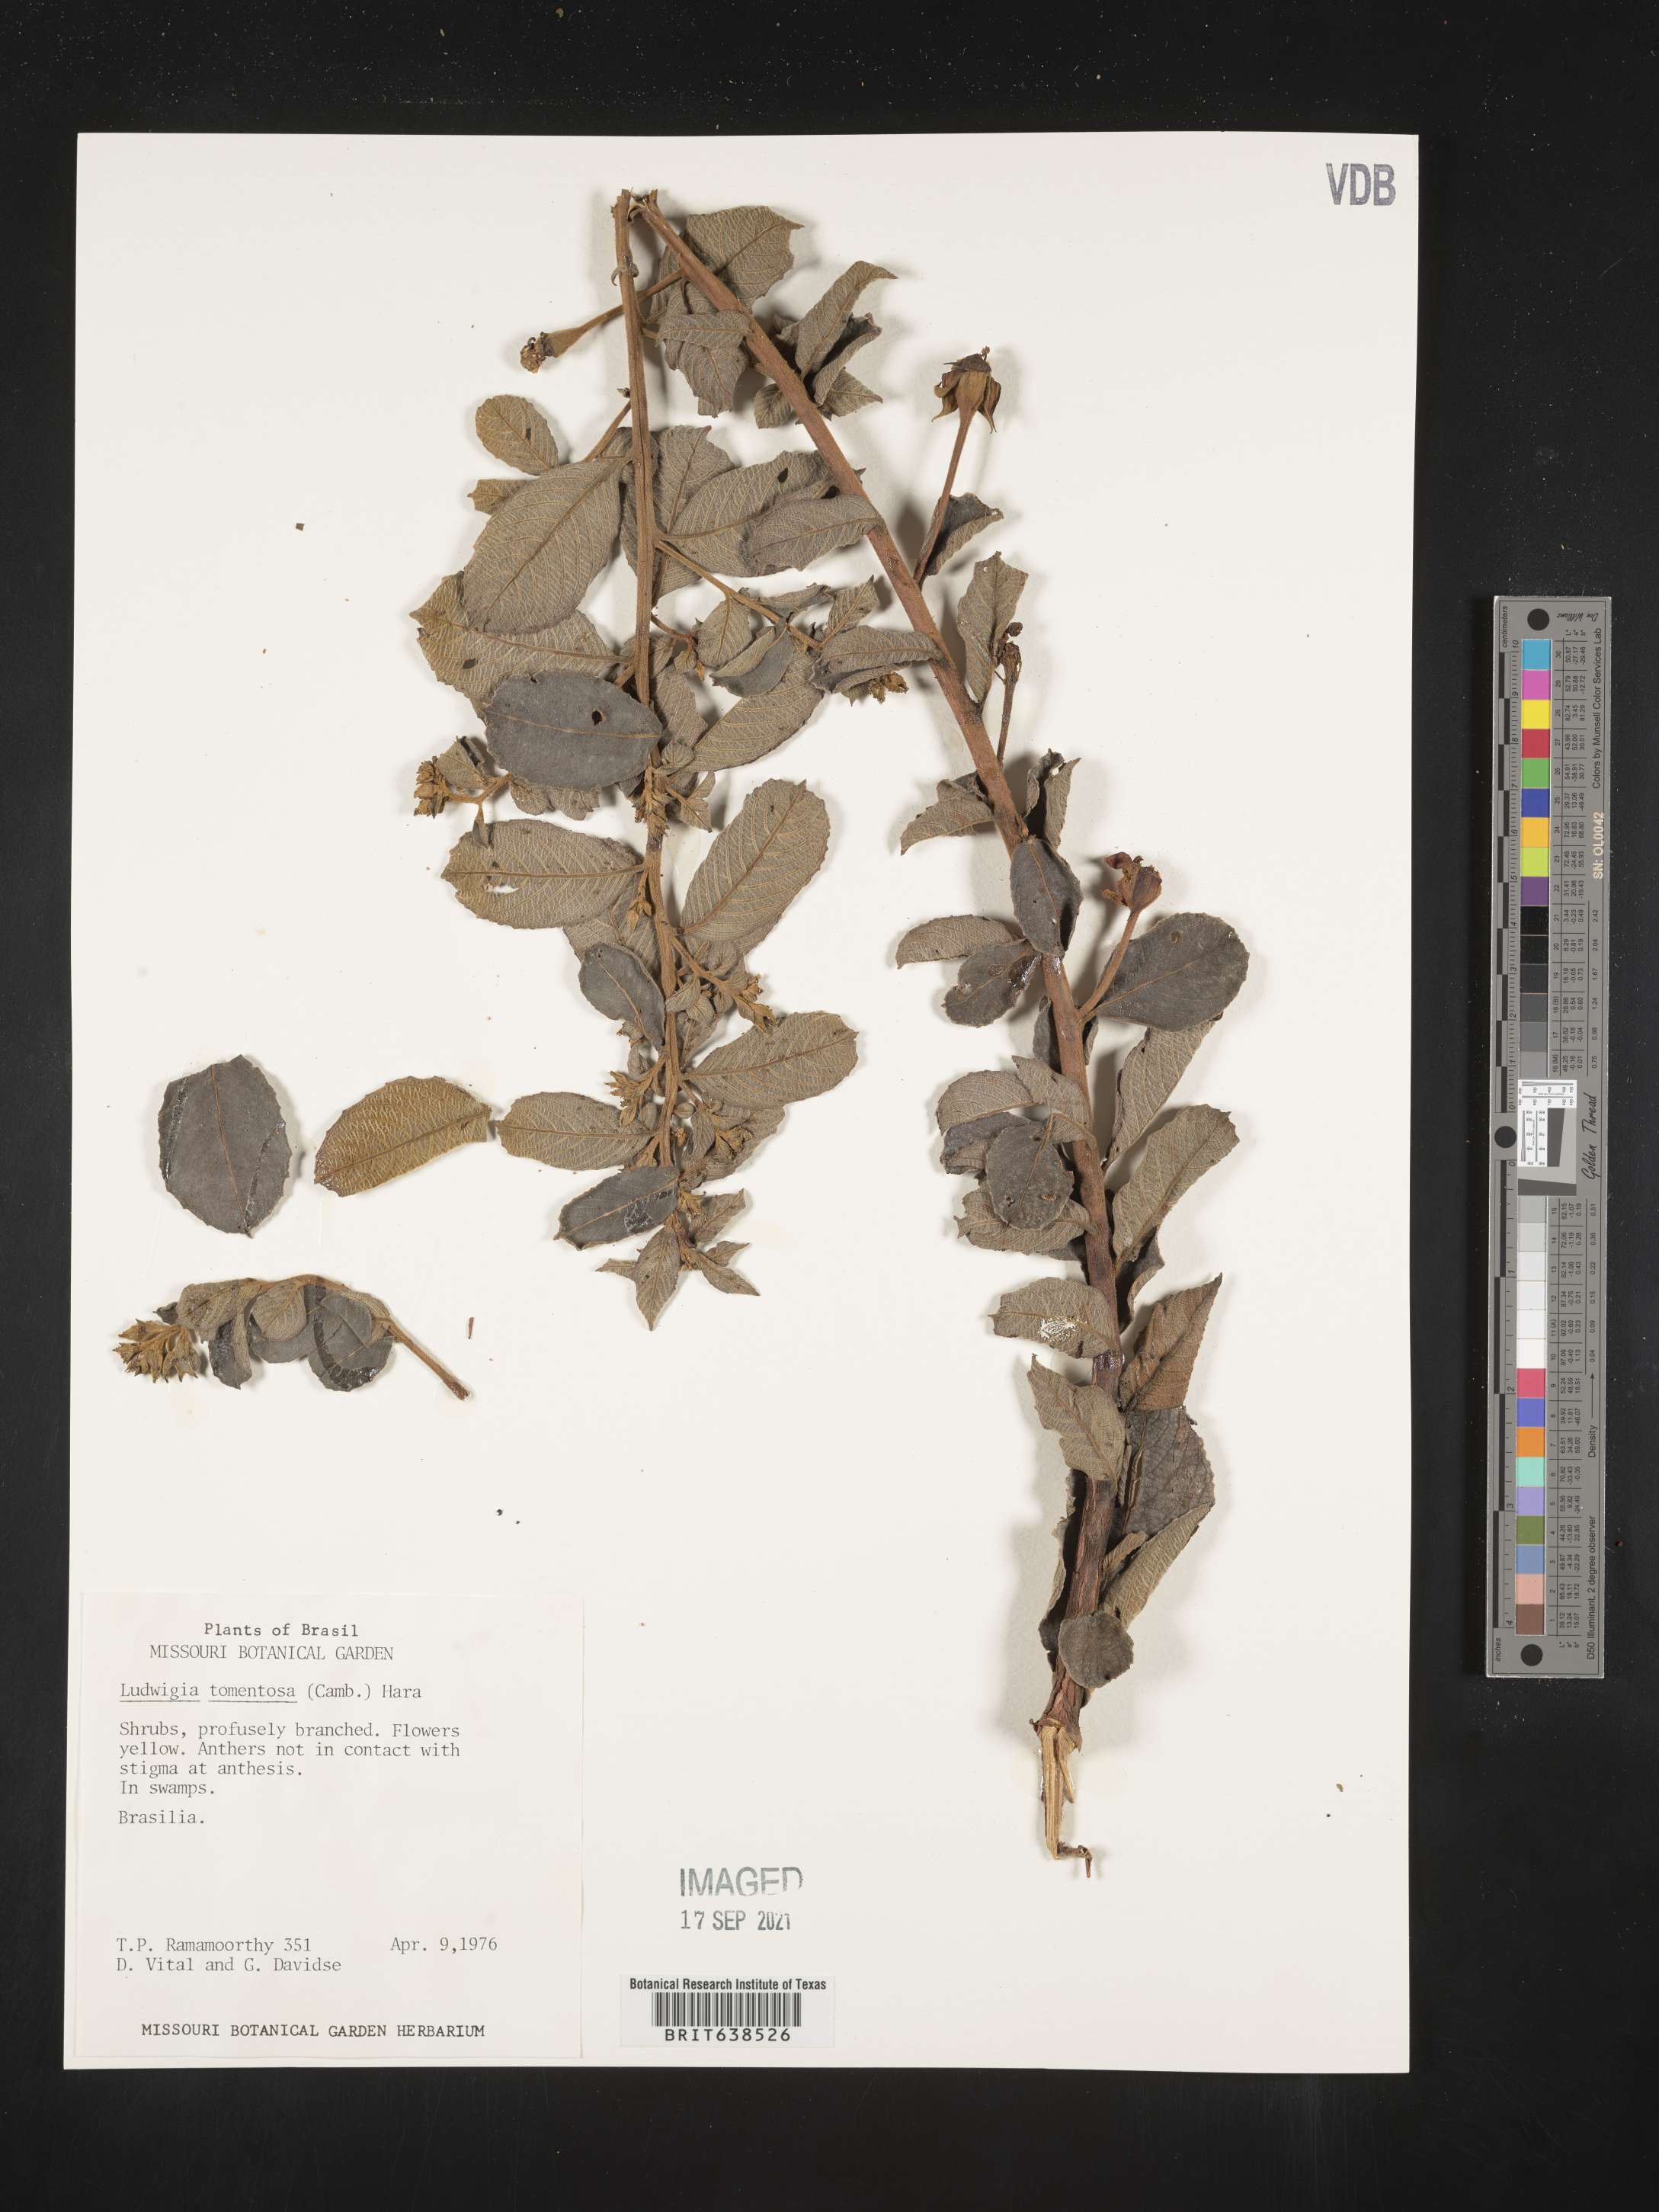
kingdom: Plantae
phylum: Tracheophyta
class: Magnoliopsida
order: Myrtales
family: Onagraceae
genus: Ludwigia
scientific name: Ludwigia
